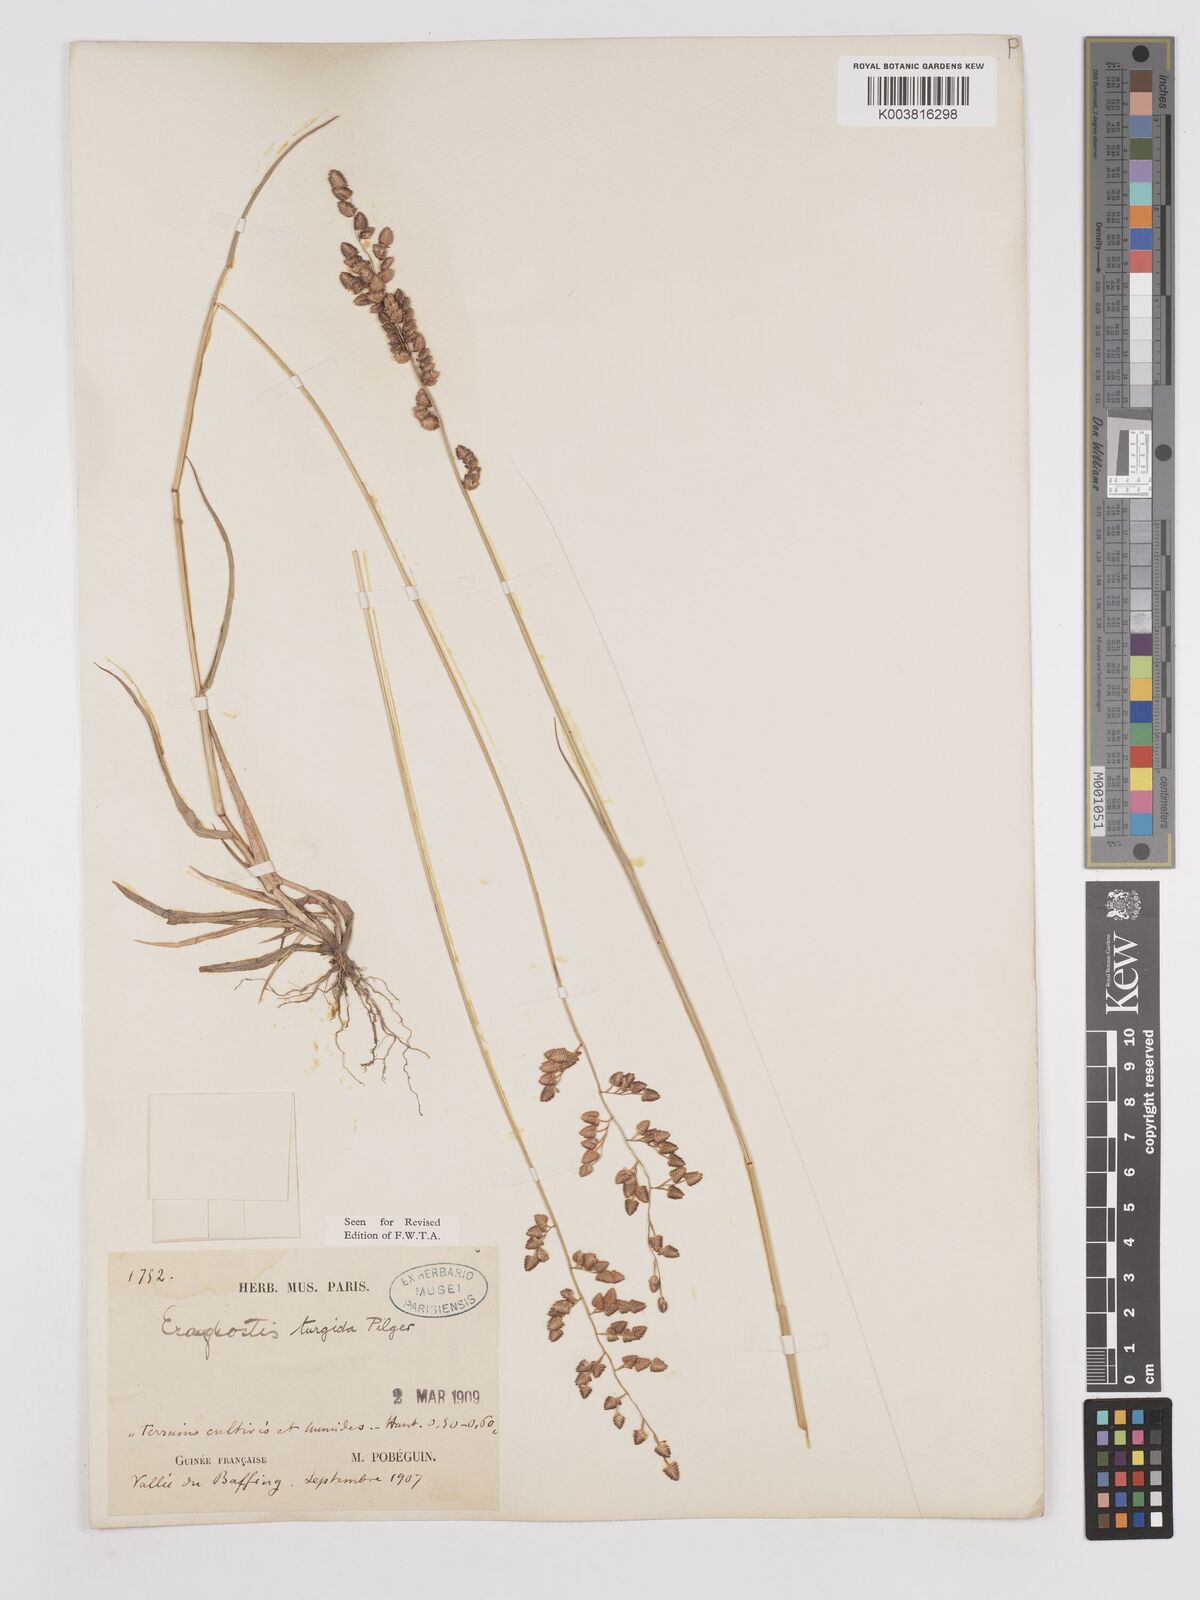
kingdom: Plantae
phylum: Tracheophyta
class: Liliopsida
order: Poales
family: Poaceae
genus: Eragrostis
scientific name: Eragrostis turgida
